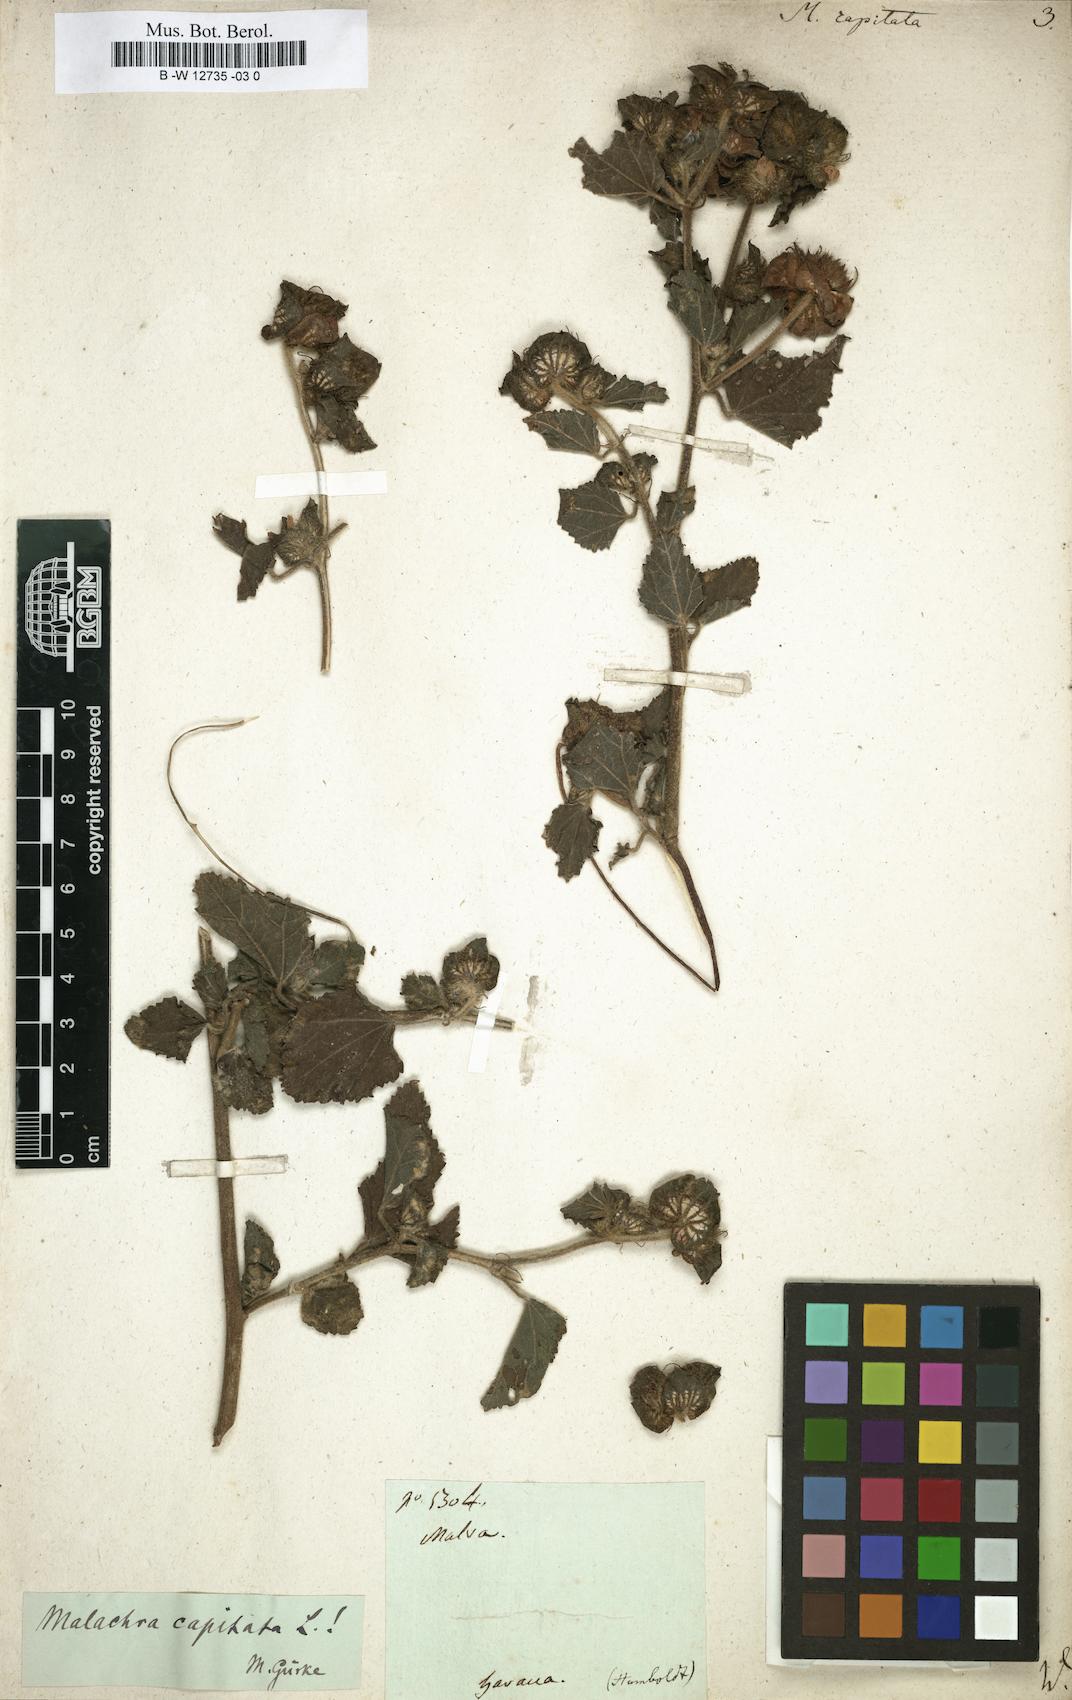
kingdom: Plantae
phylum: Tracheophyta
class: Magnoliopsida
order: Malvales
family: Malvaceae
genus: Malachra
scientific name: Malachra capitata
